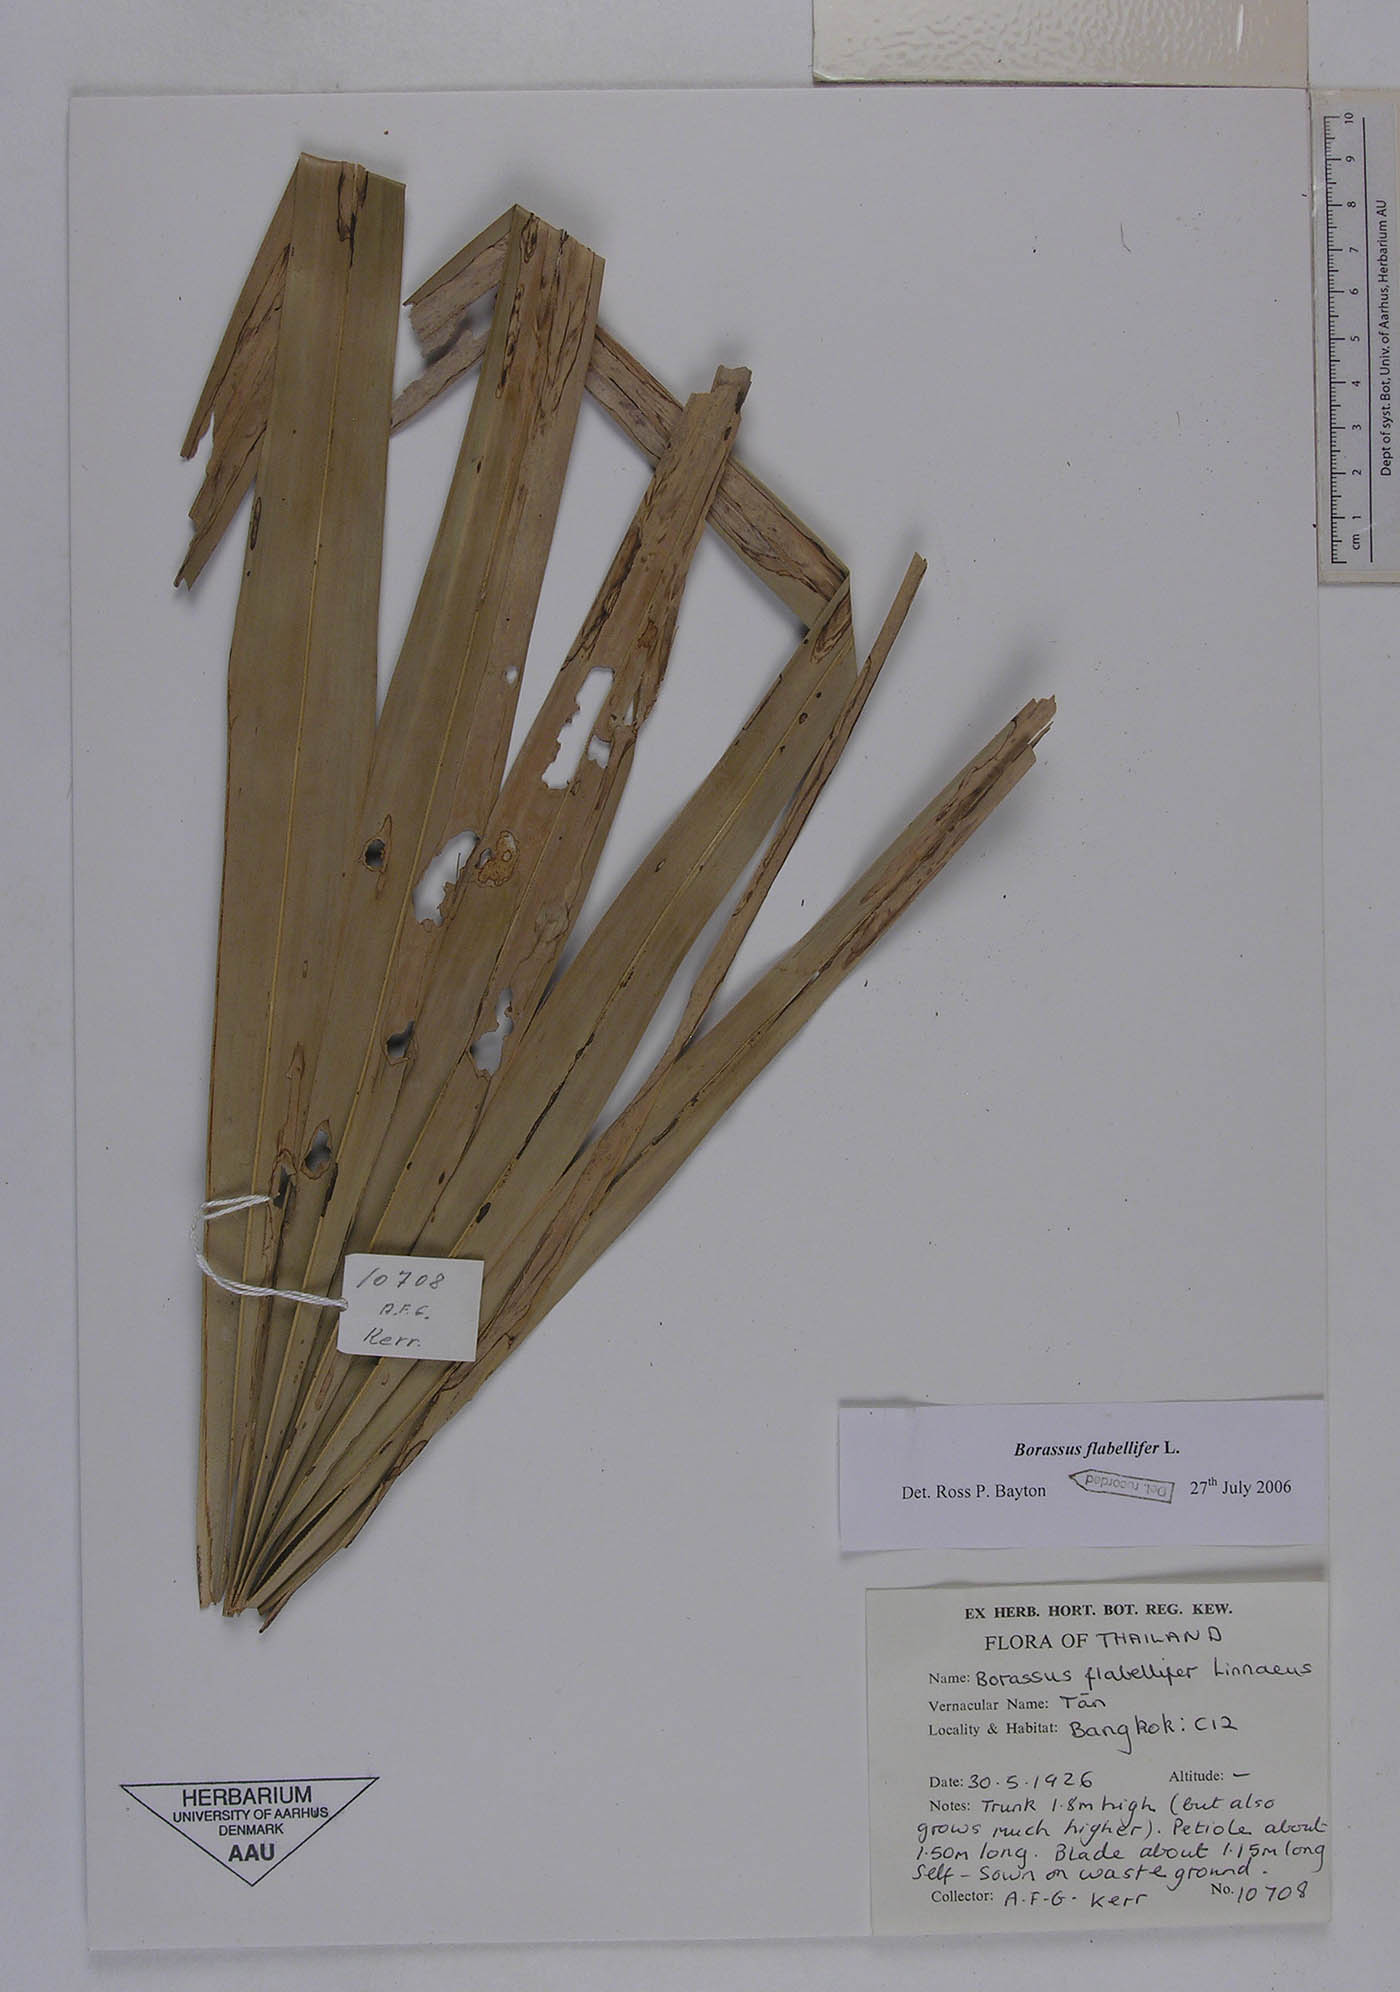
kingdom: Plantae
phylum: Tracheophyta
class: Liliopsida
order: Arecales
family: Arecaceae
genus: Borassus
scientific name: Borassus flabellifer
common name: Palmyra palm
